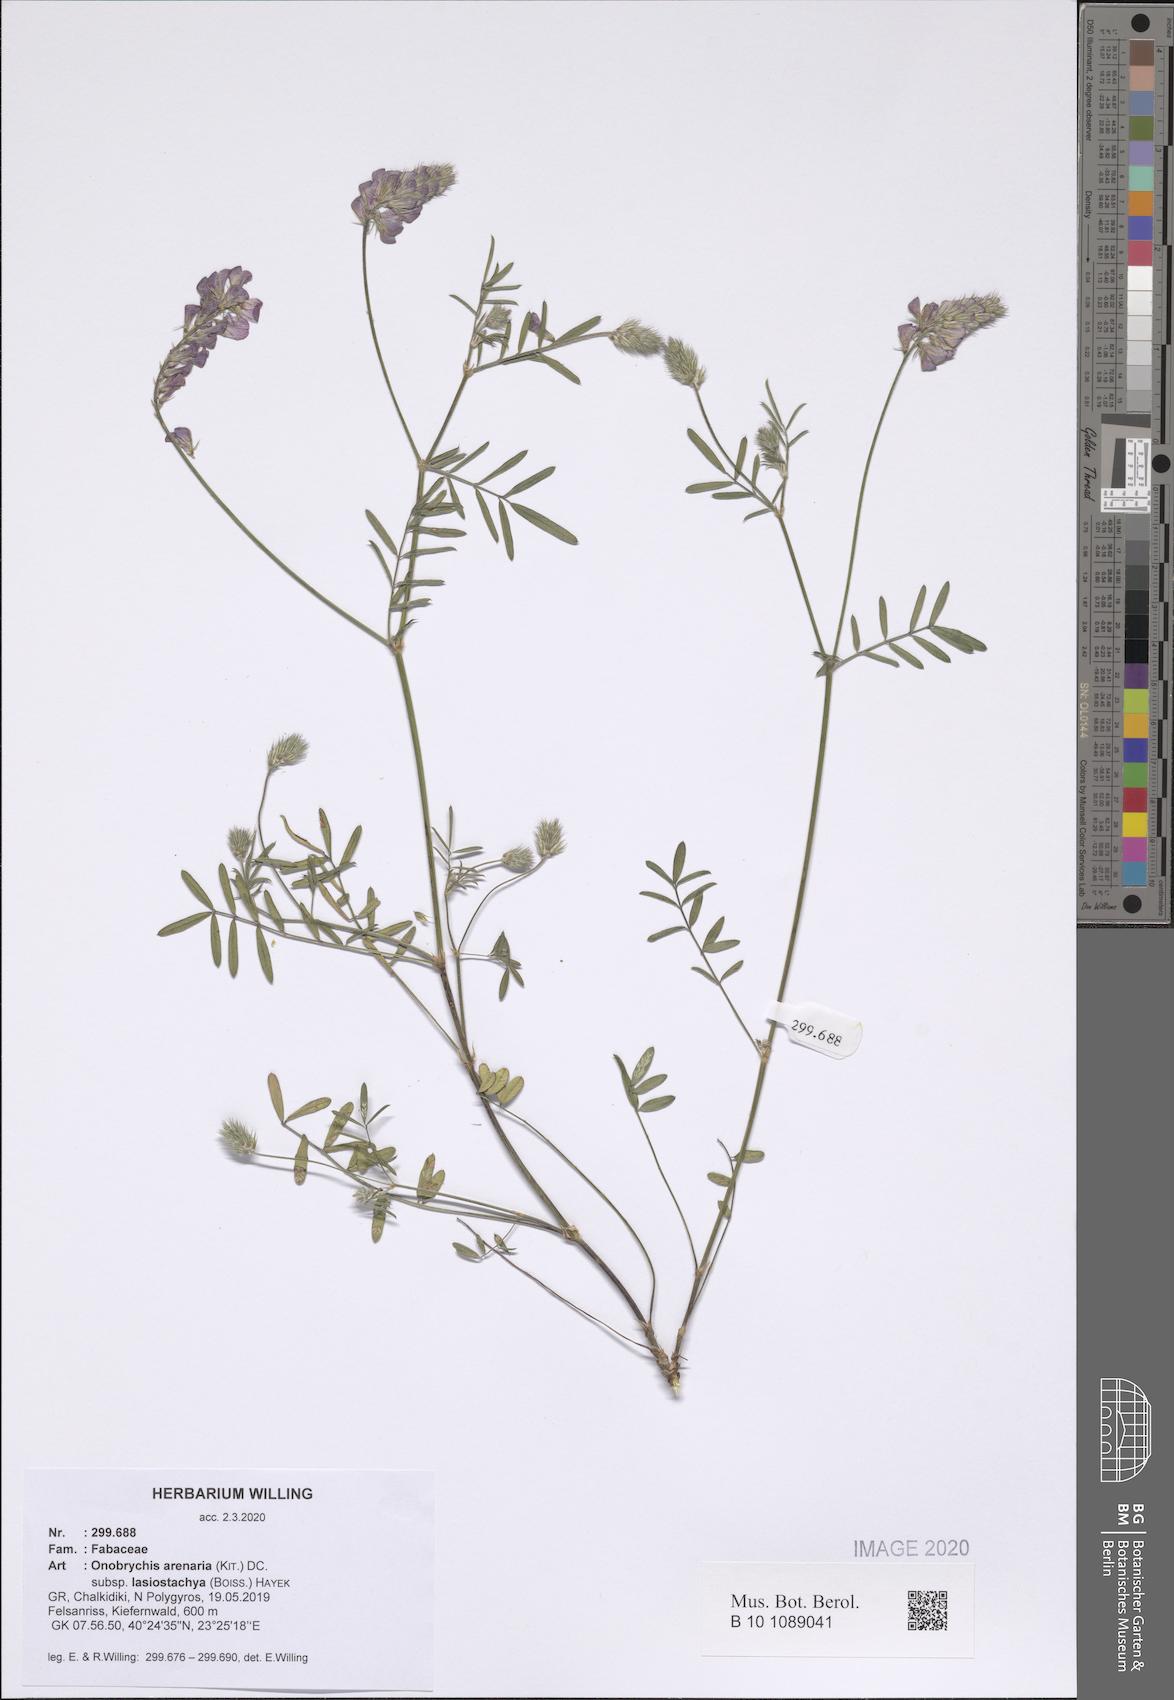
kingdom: Plantae
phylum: Tracheophyta
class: Magnoliopsida
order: Fabales
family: Fabaceae
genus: Onobrychis
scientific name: Onobrychis arenaria
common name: Sand esparcet
